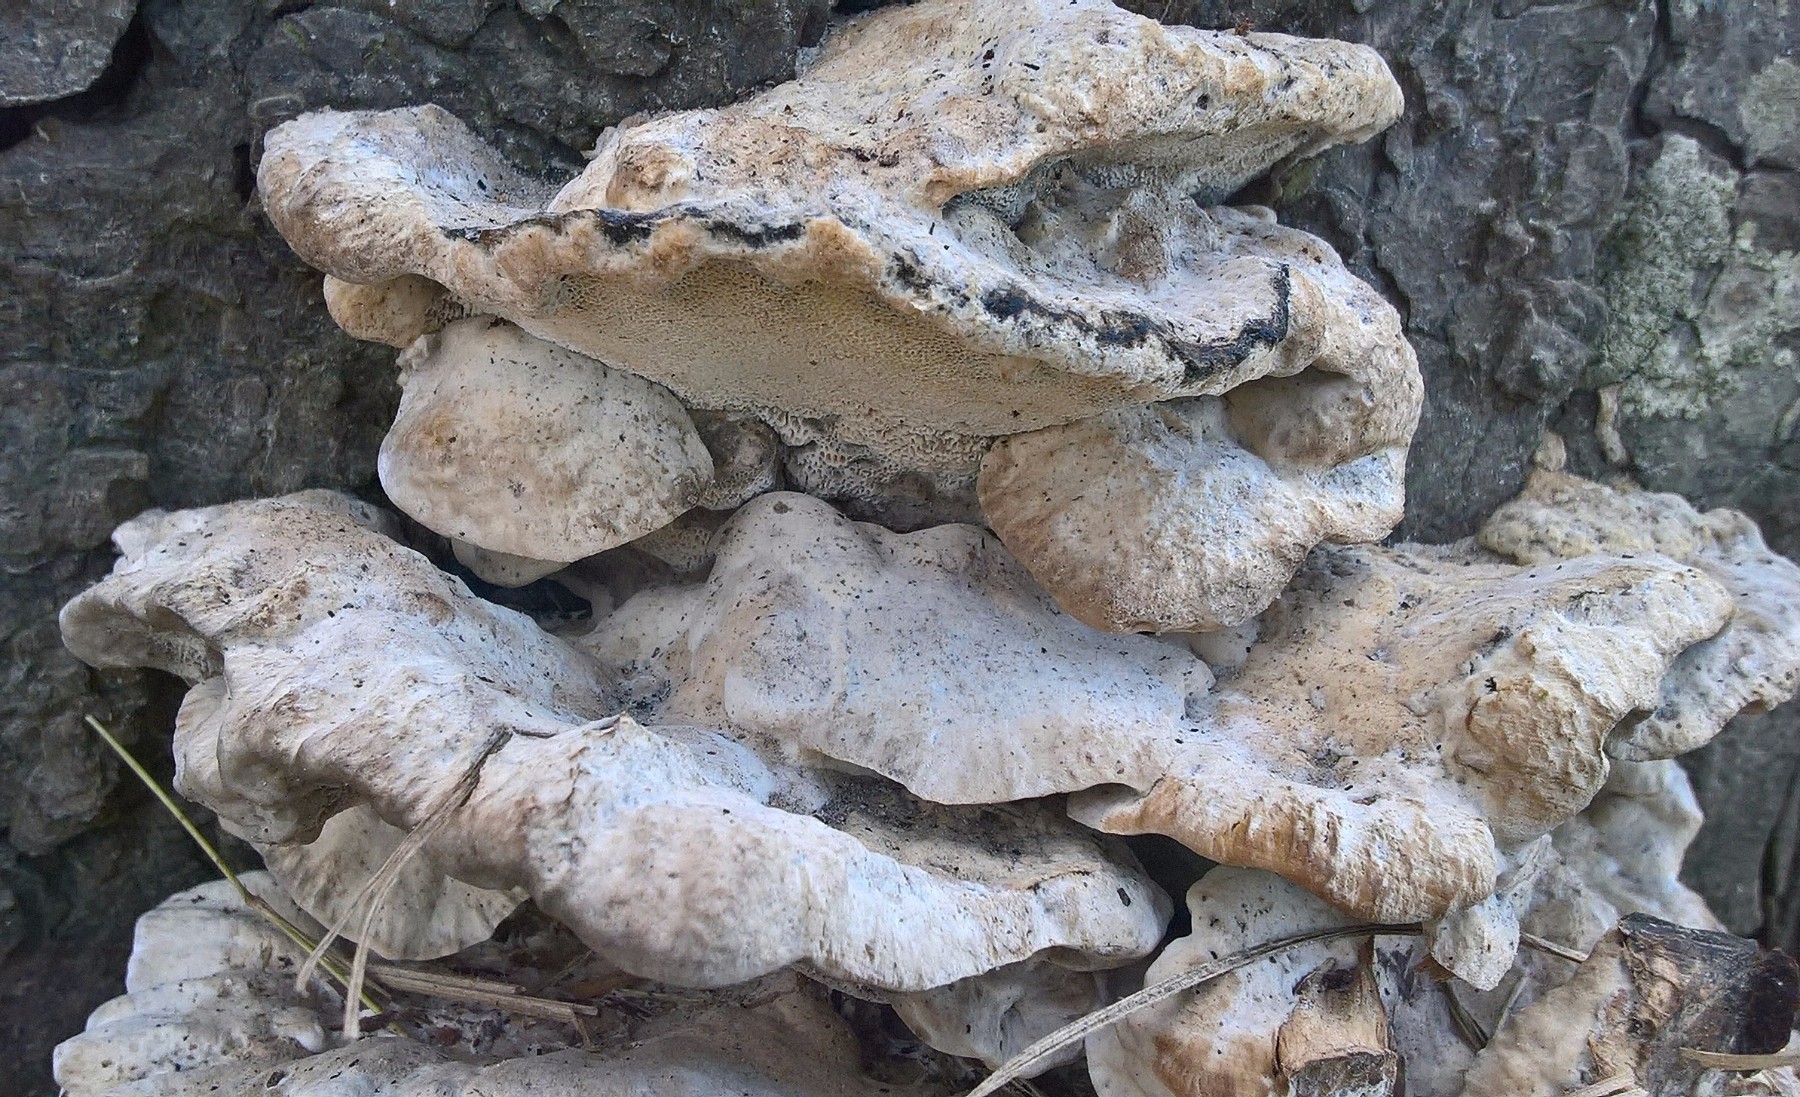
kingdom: Fungi
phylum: Basidiomycota
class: Agaricomycetes
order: Polyporales
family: Laetiporaceae
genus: Laetiporus
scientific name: Laetiporus sulphureus
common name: svovlporesvamp
